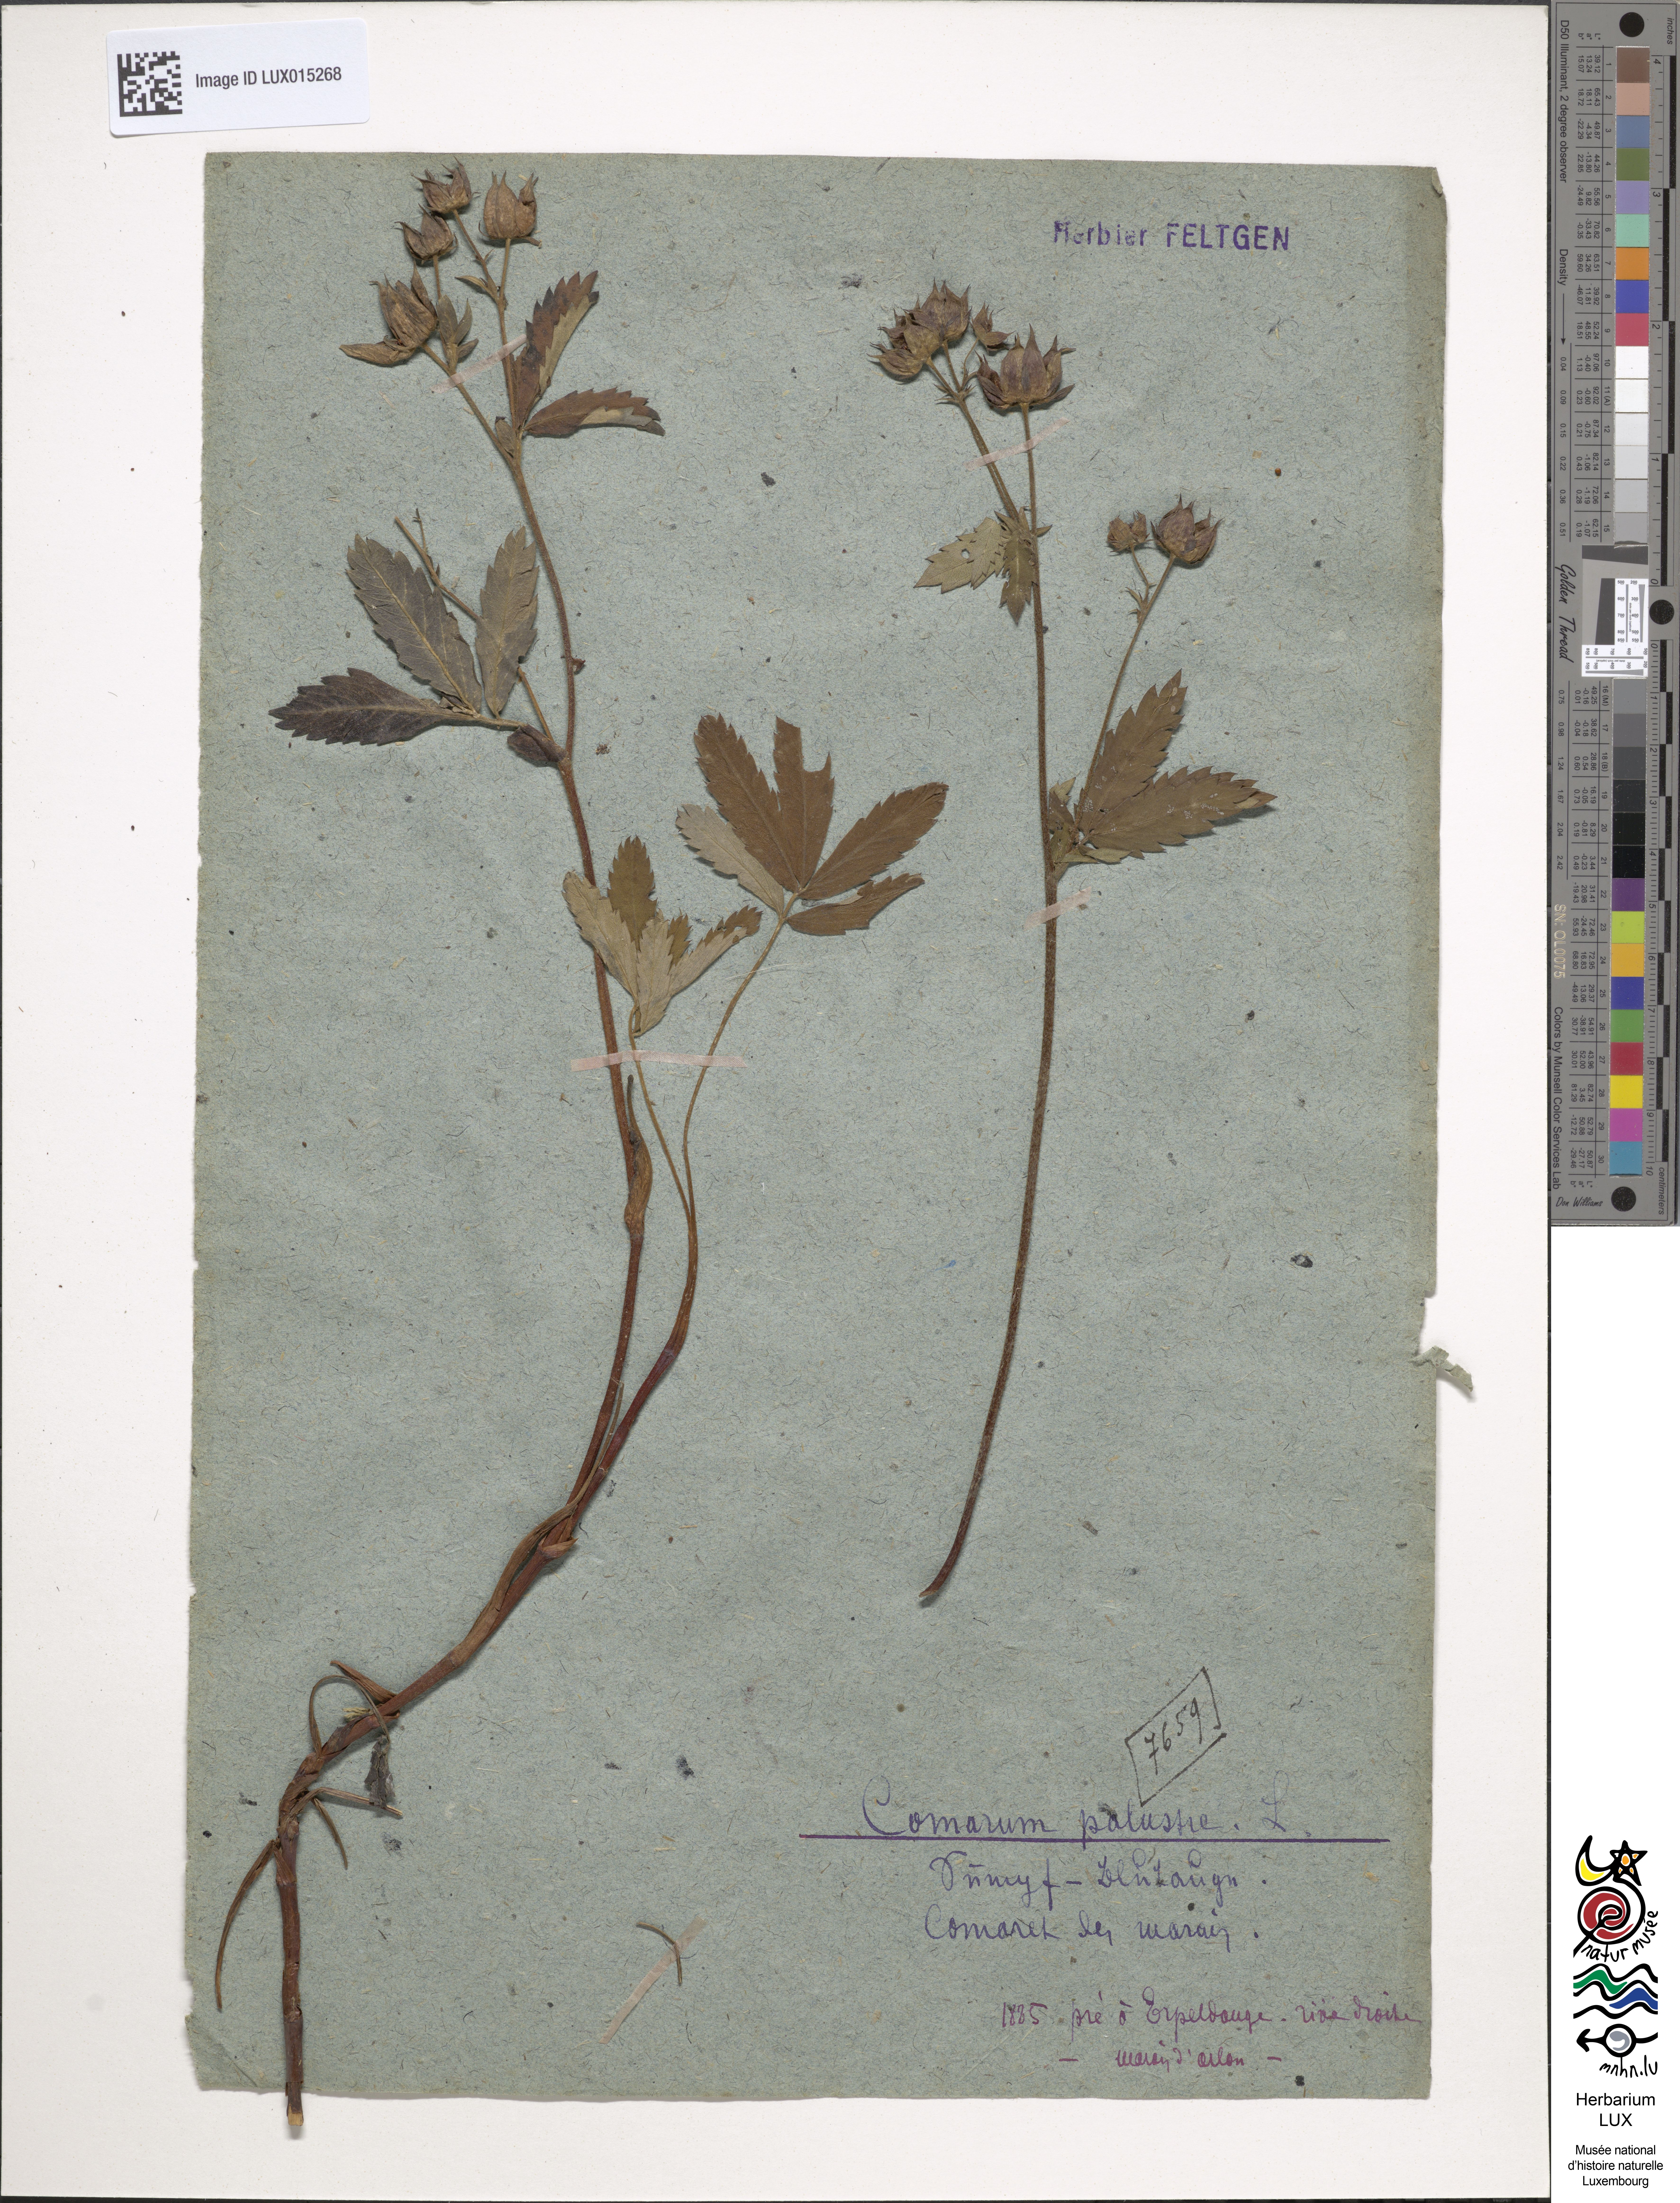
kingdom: Plantae
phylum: Tracheophyta
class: Magnoliopsida
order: Rosales
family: Rosaceae
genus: Comarum
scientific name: Comarum palustre
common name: Marsh cinquefoil
